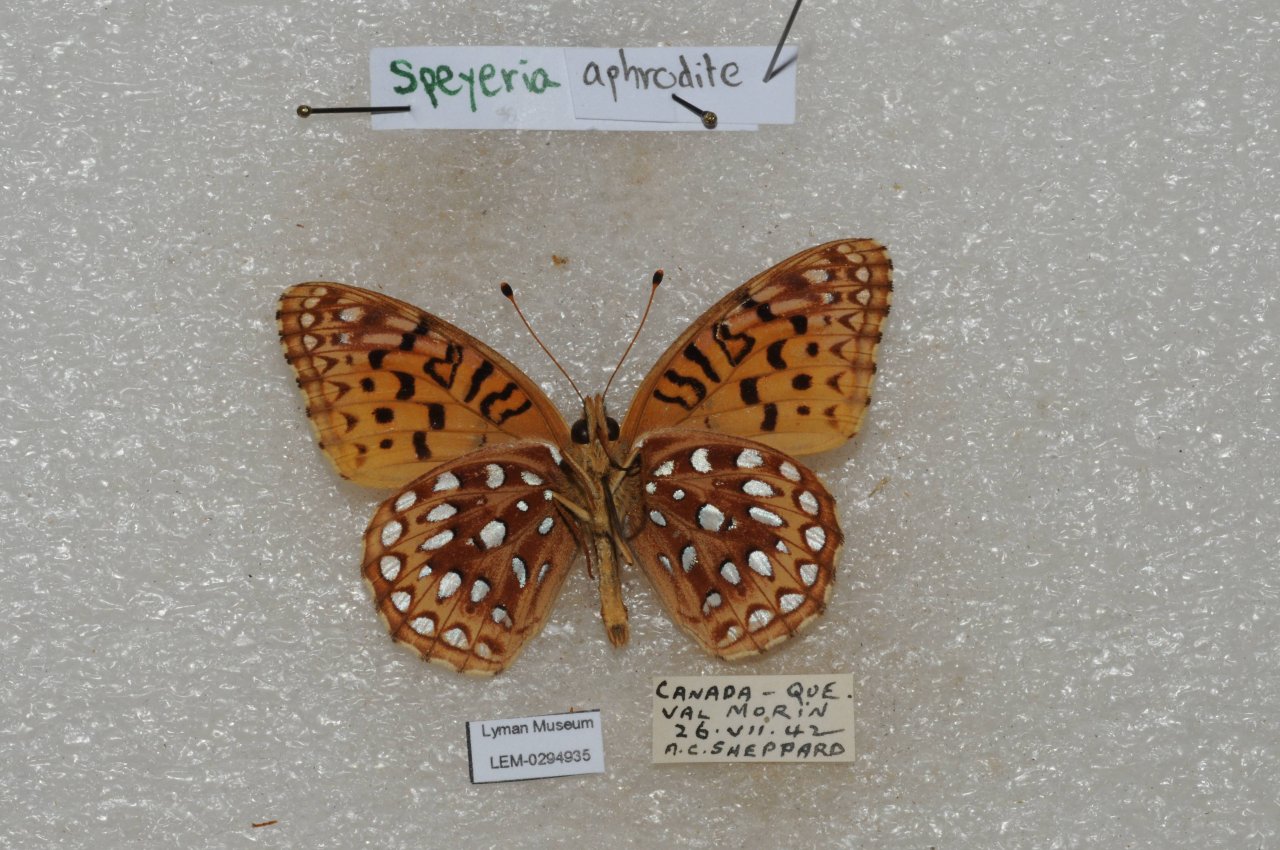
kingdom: Animalia
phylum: Arthropoda
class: Insecta
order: Lepidoptera
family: Nymphalidae
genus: Speyeria
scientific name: Speyeria aphrodite
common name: Aphrodite Fritillary
